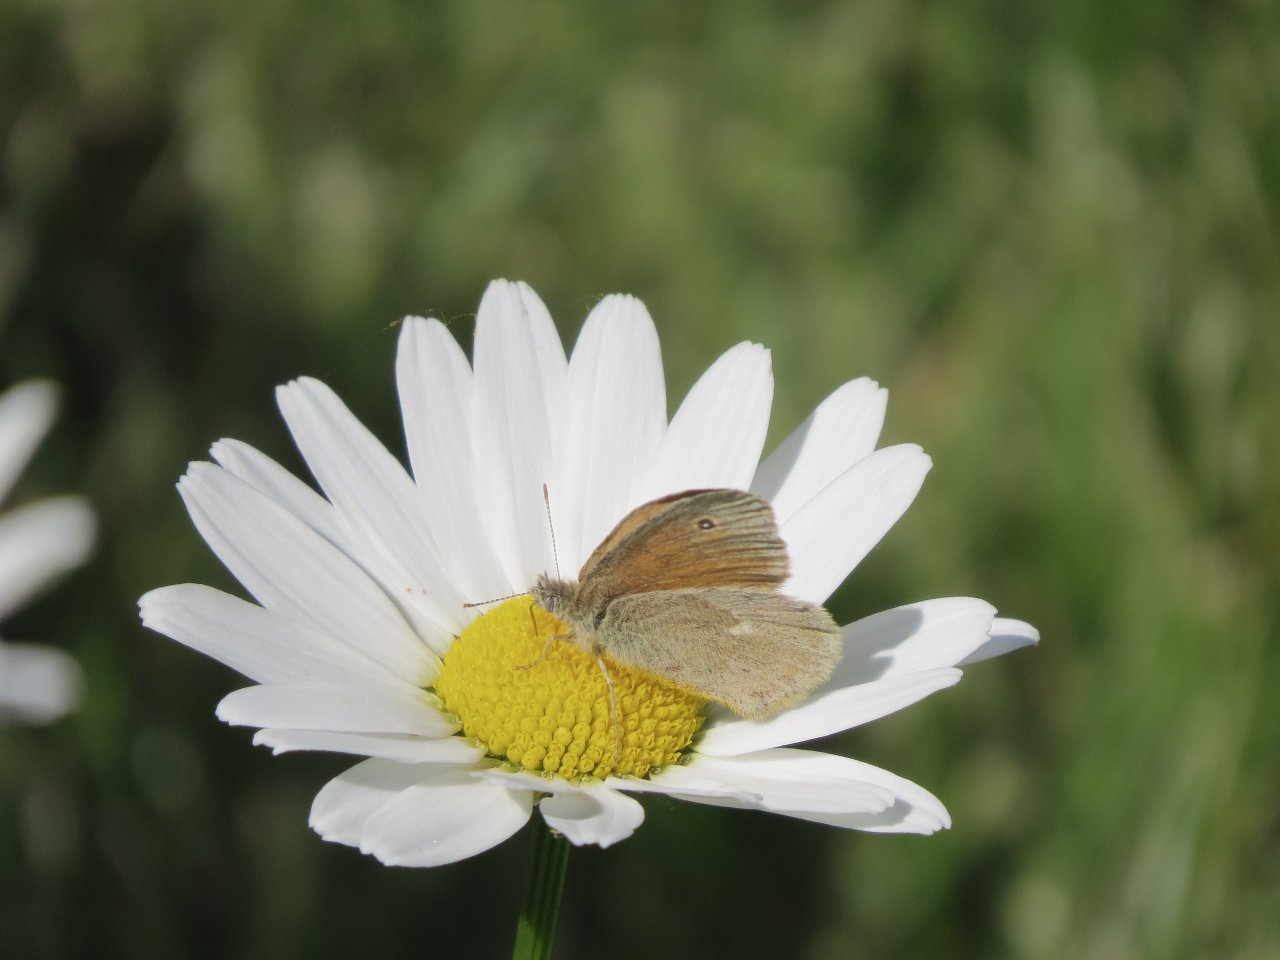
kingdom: Animalia
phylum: Arthropoda
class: Insecta
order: Lepidoptera
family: Nymphalidae
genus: Coenonympha
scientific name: Coenonympha tullia
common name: Large Heath
